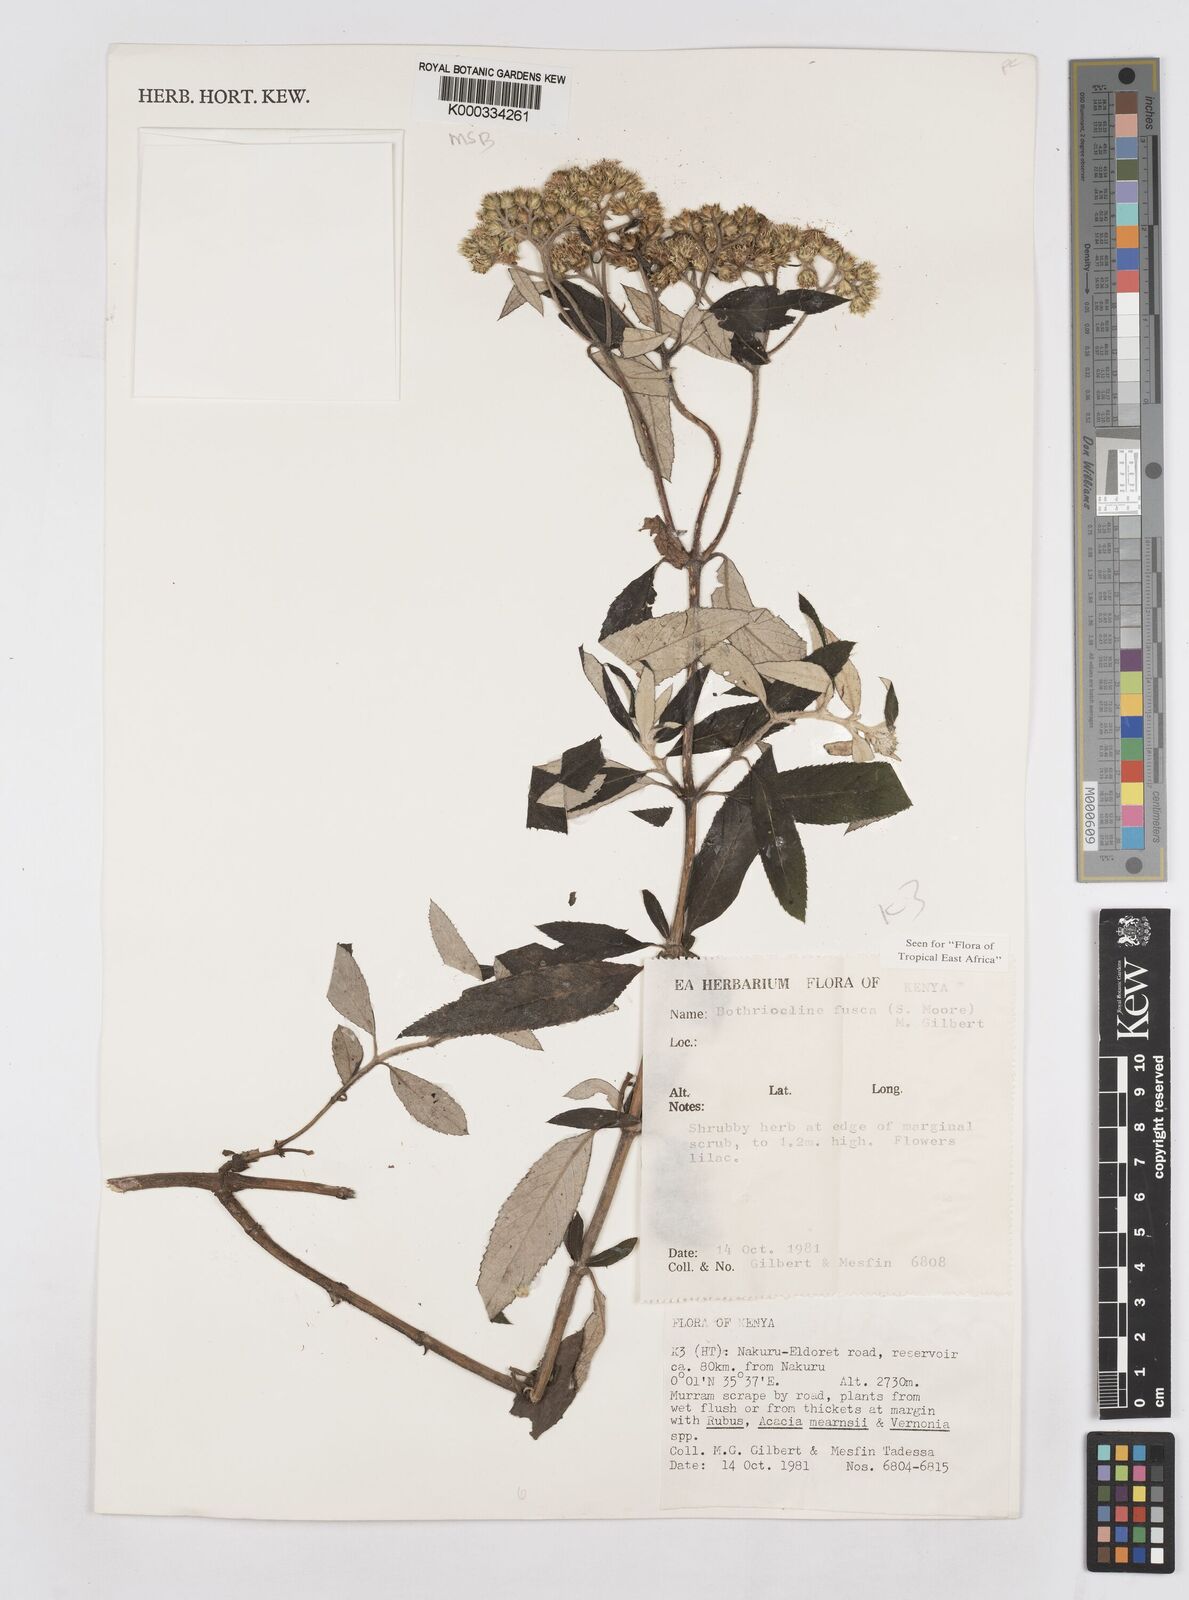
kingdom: Plantae
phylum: Tracheophyta
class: Magnoliopsida
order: Asterales
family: Asteraceae
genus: Bothriocline
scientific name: Bothriocline fusca
